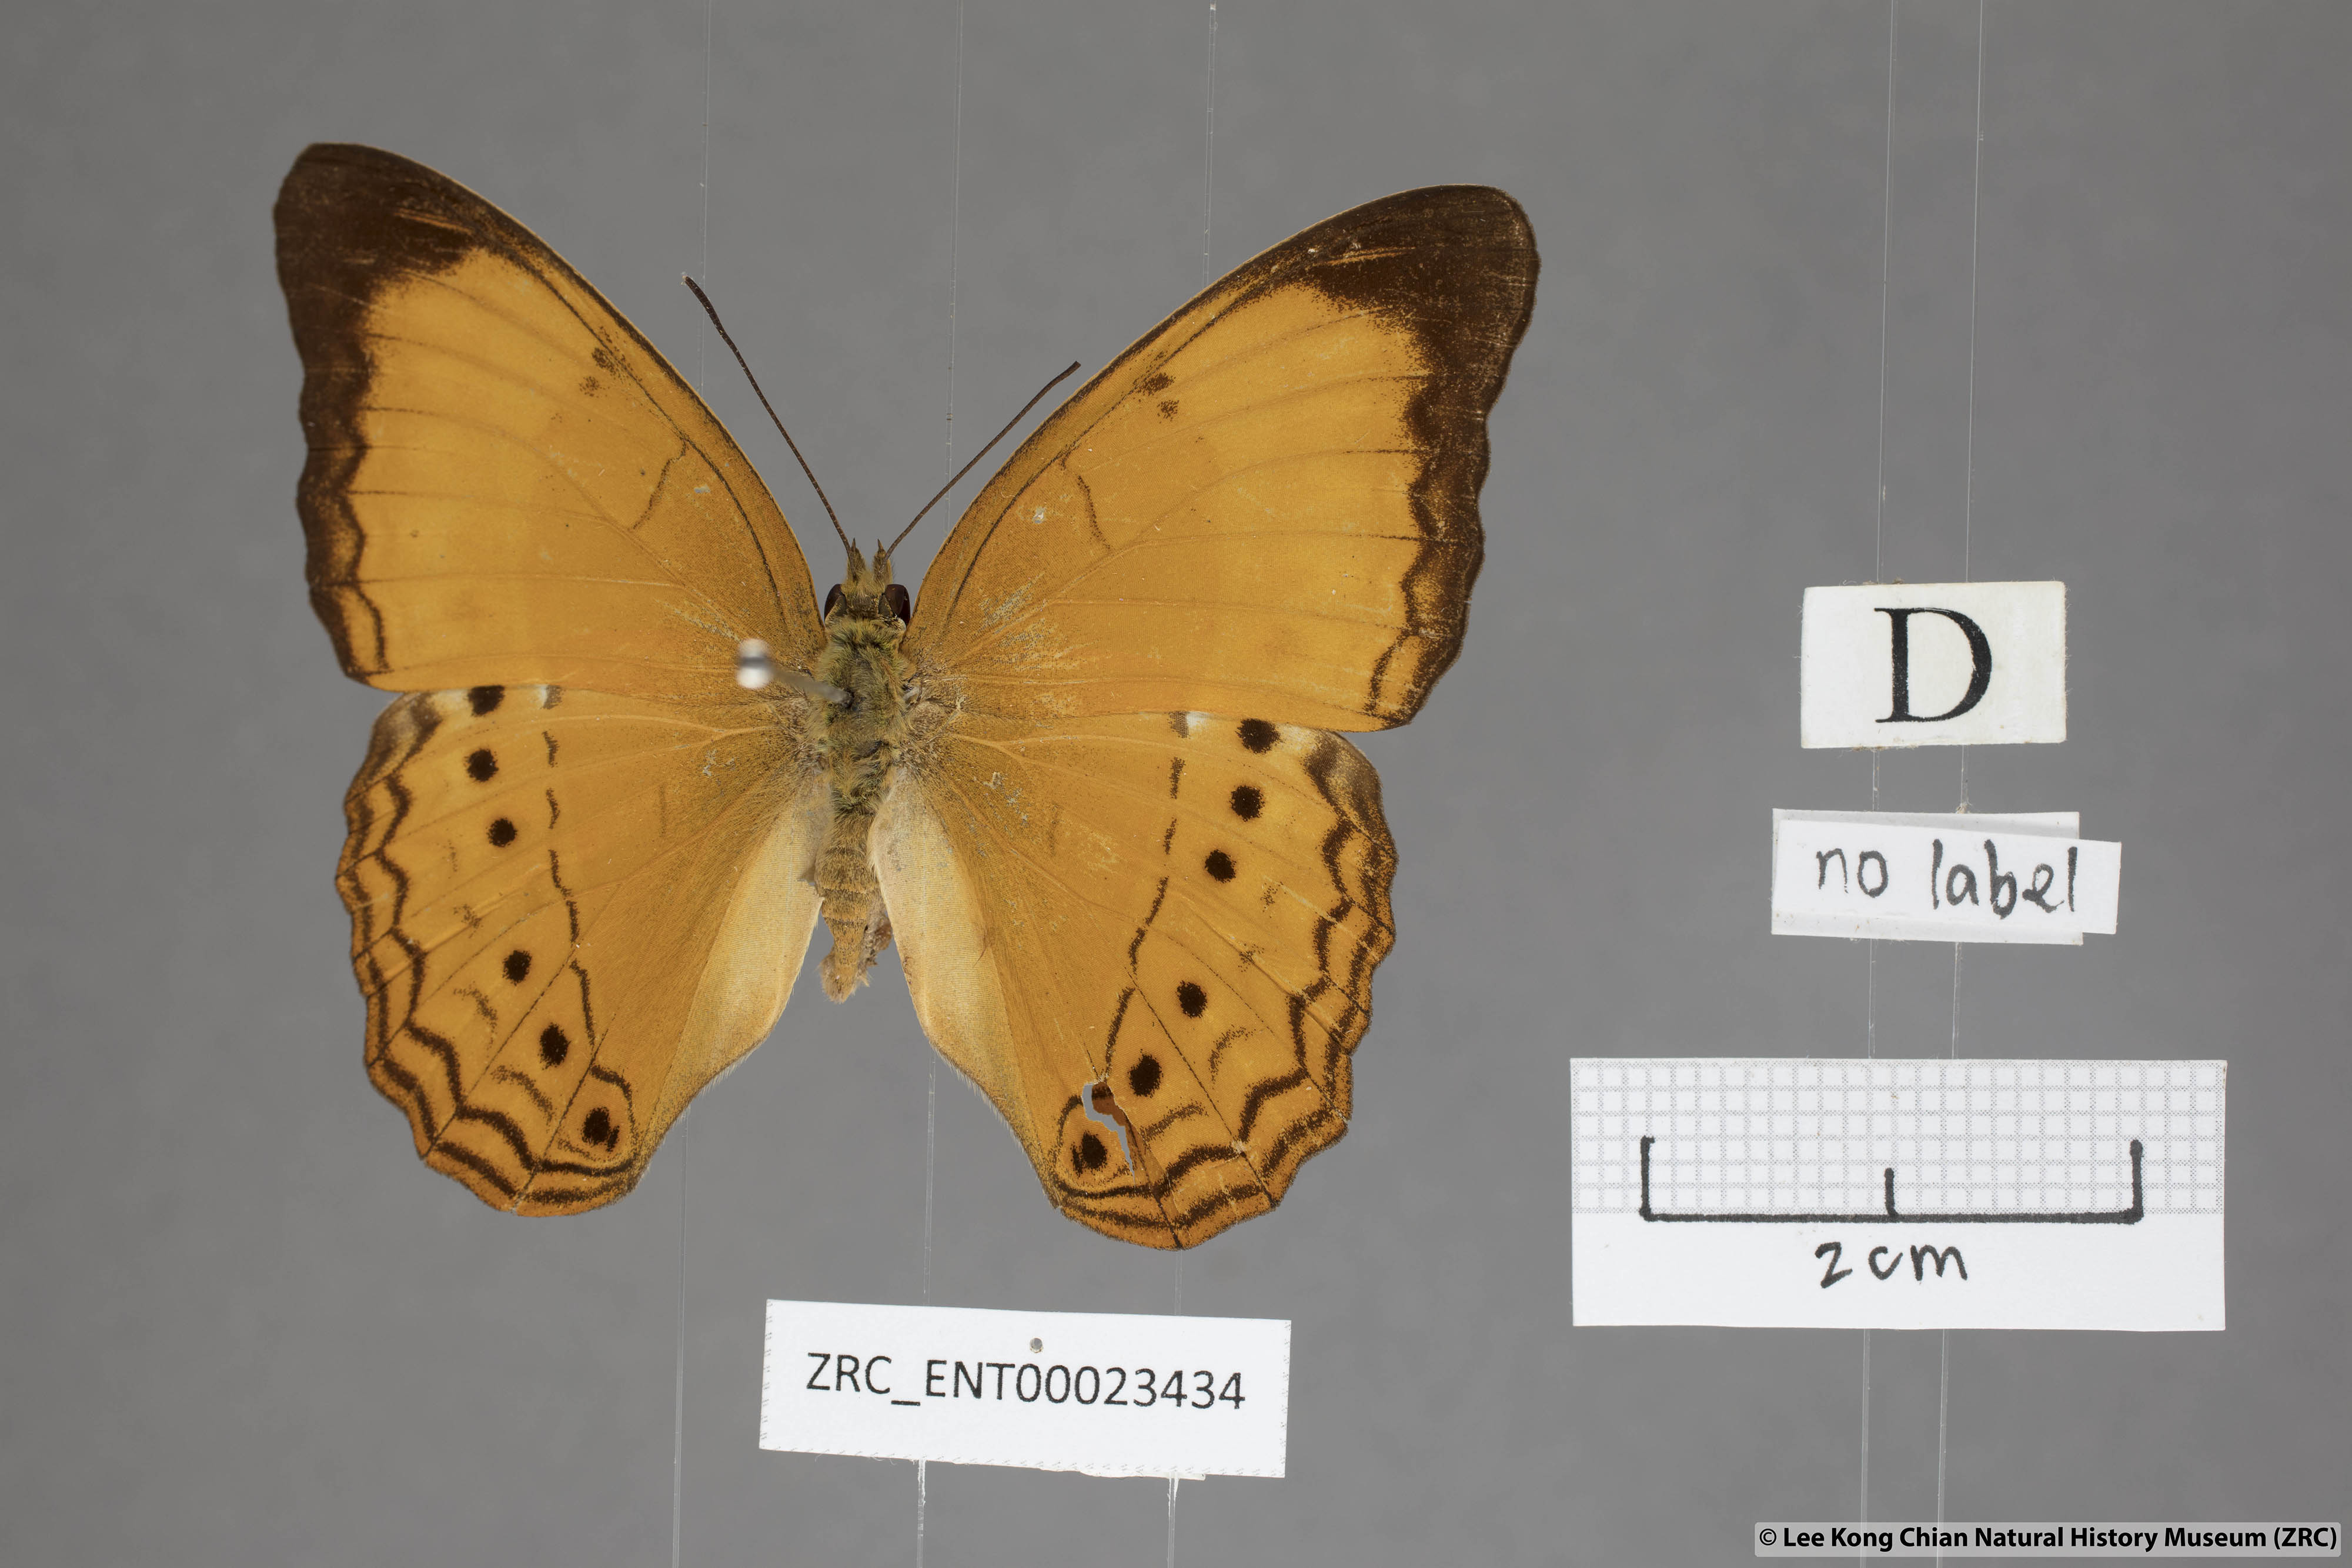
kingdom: Animalia
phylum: Arthropoda
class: Insecta
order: Lepidoptera
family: Nymphalidae
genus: Cirrochroa
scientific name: Cirrochroa malaya
